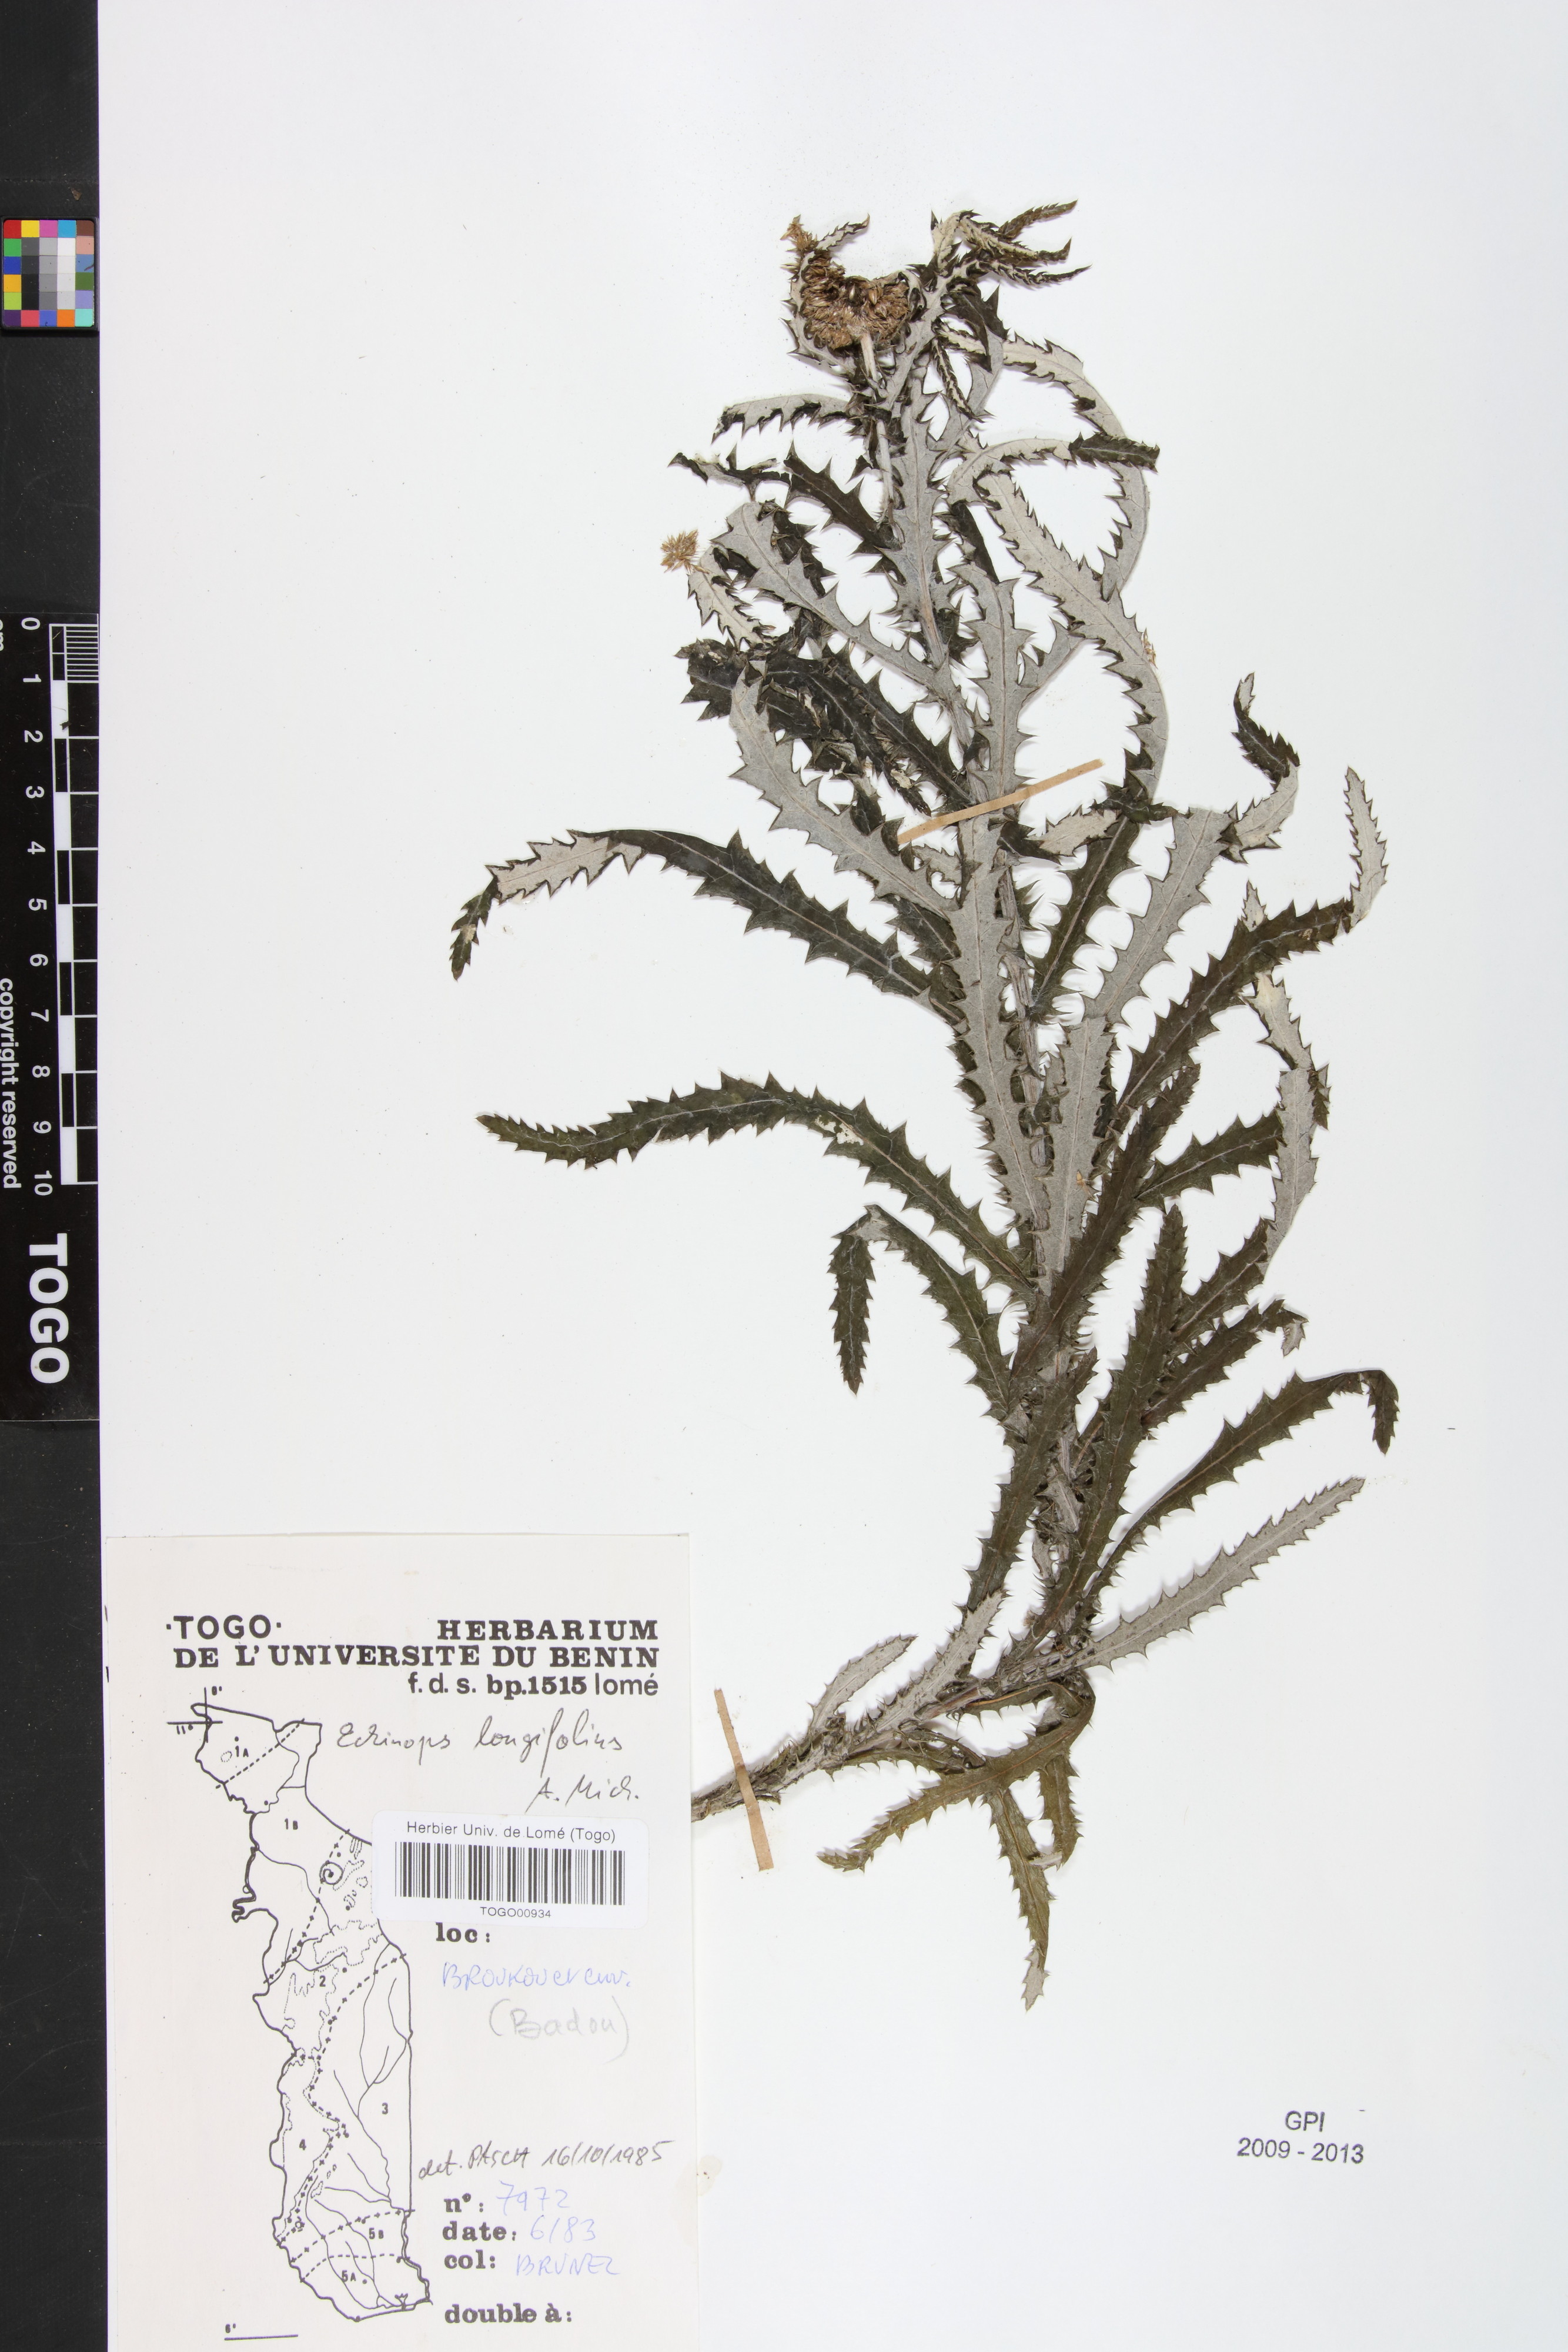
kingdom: Plantae
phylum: Tracheophyta
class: Magnoliopsida
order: Asterales
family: Asteraceae
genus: Echinops
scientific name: Echinops longifolius
